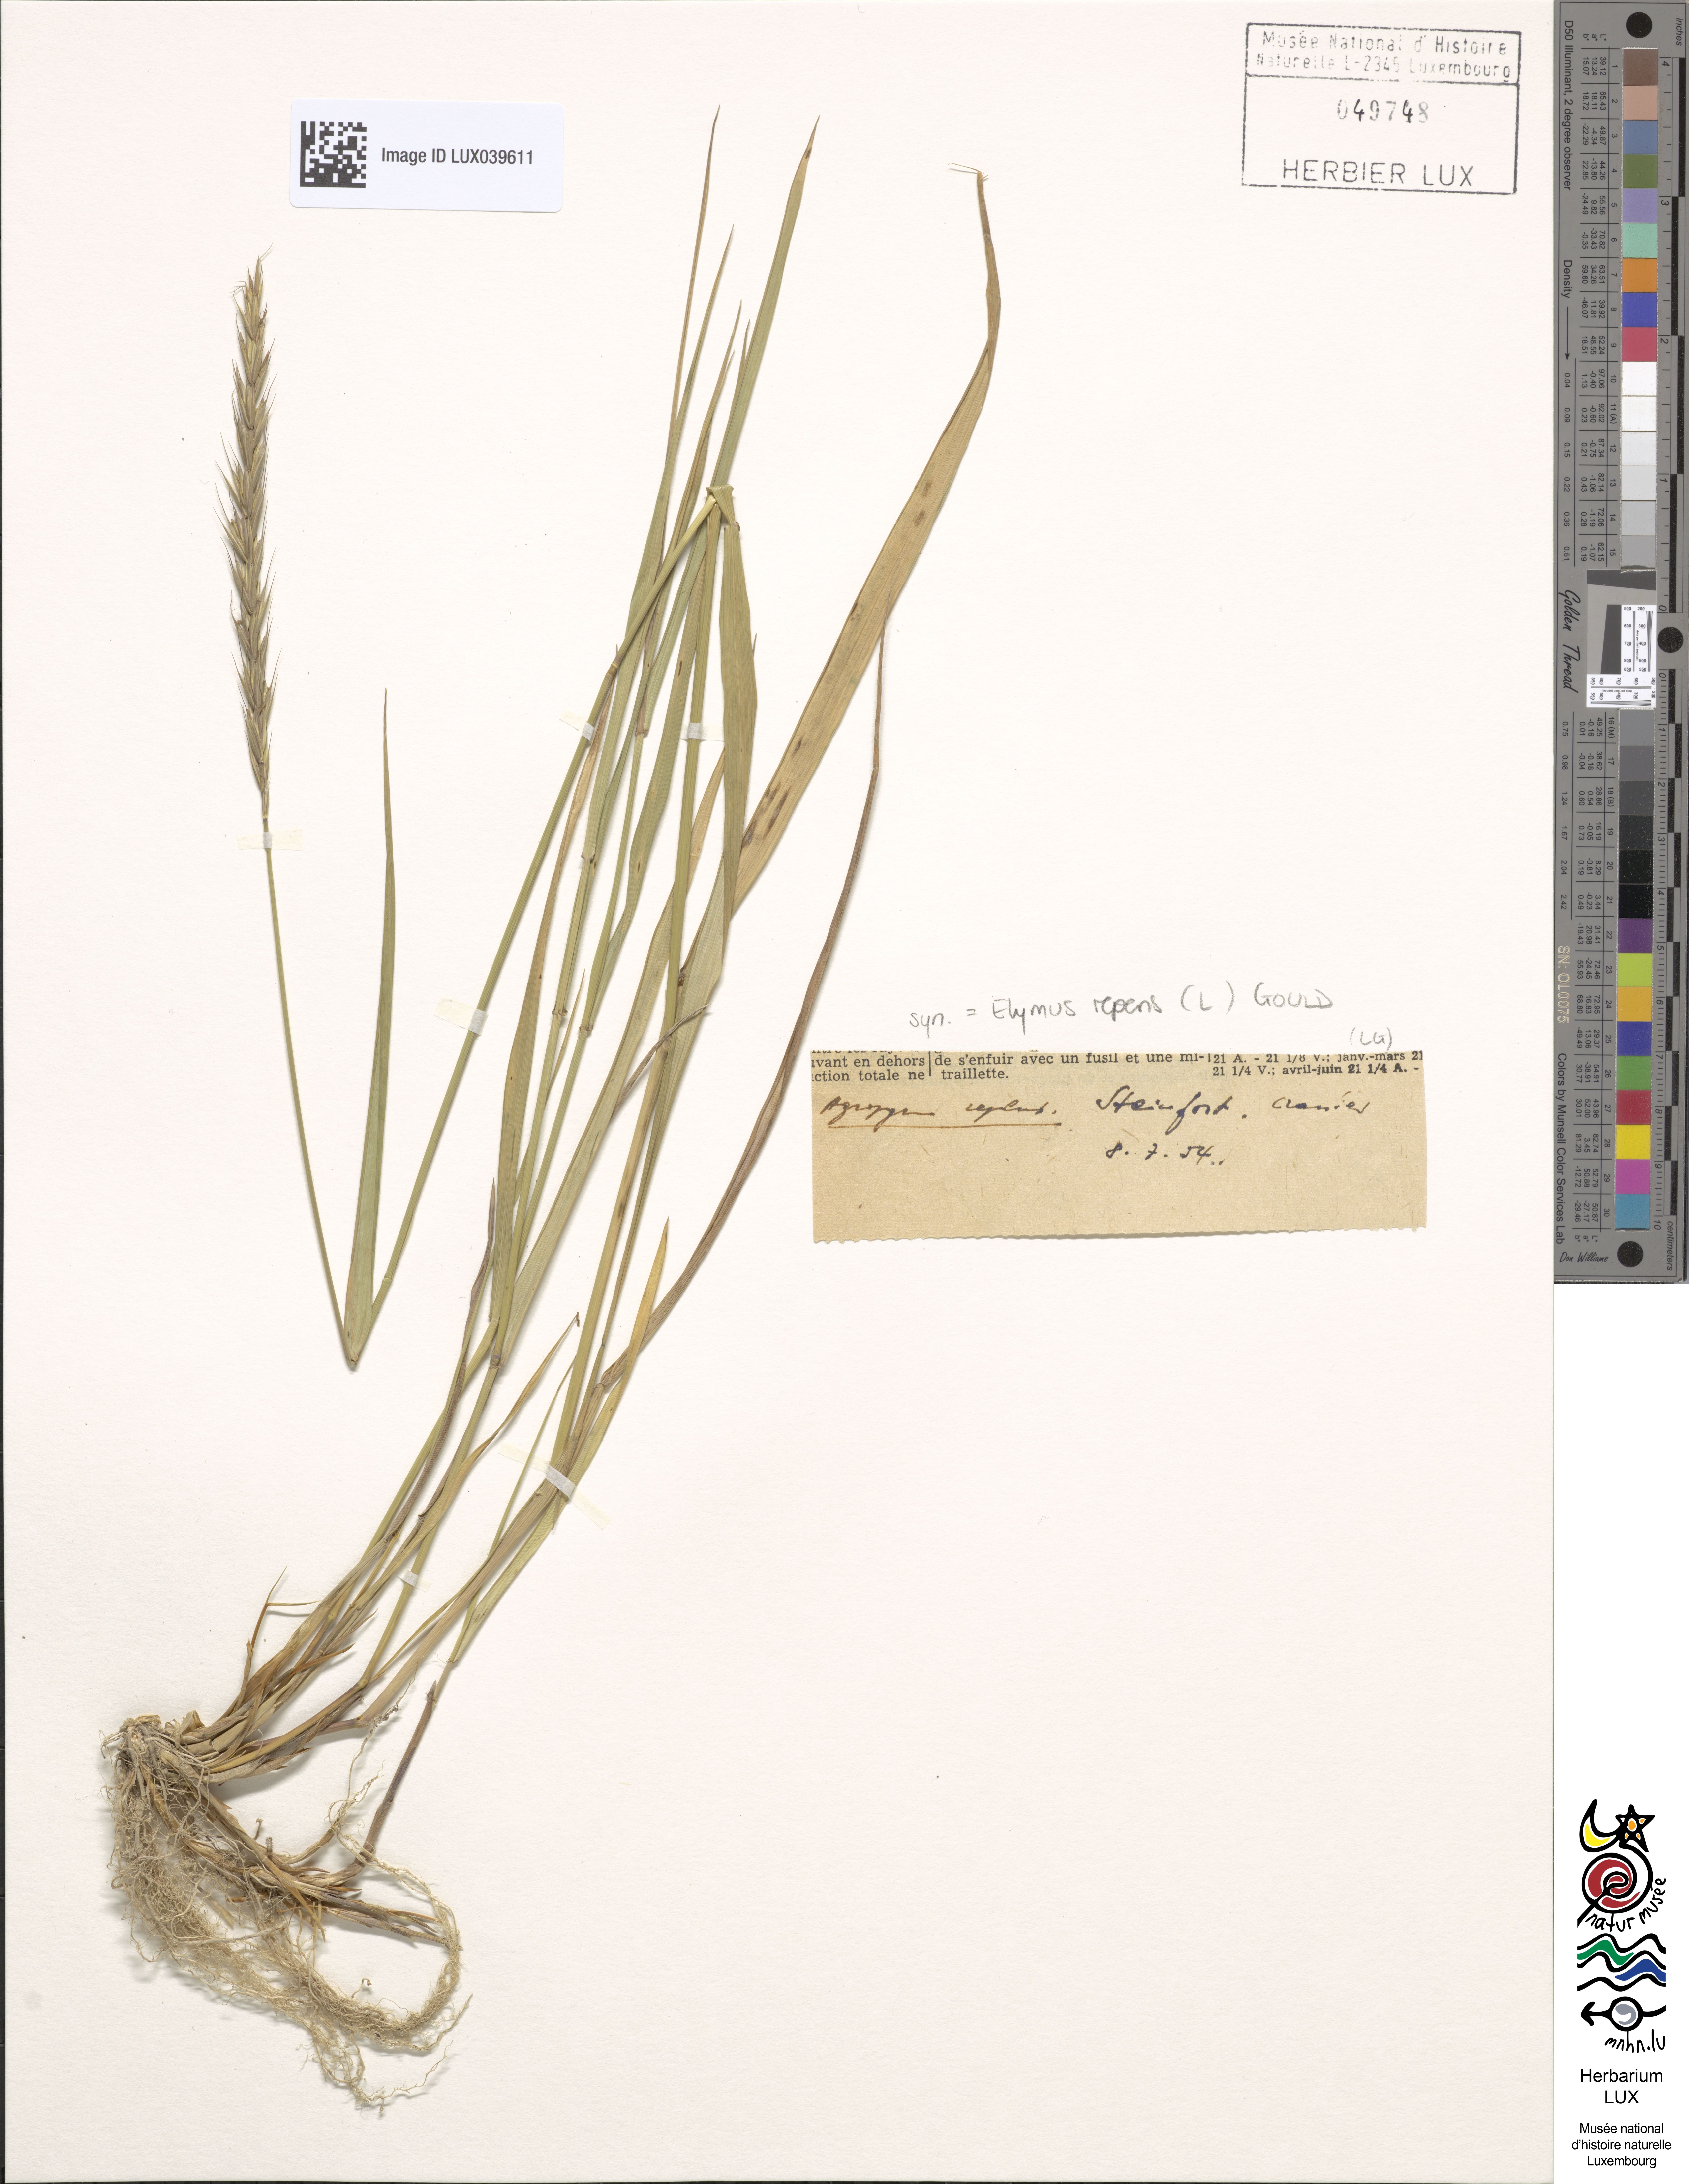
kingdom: Plantae
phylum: Tracheophyta
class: Liliopsida
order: Poales
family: Poaceae
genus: Elymus
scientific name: Elymus repens
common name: Quackgrass
